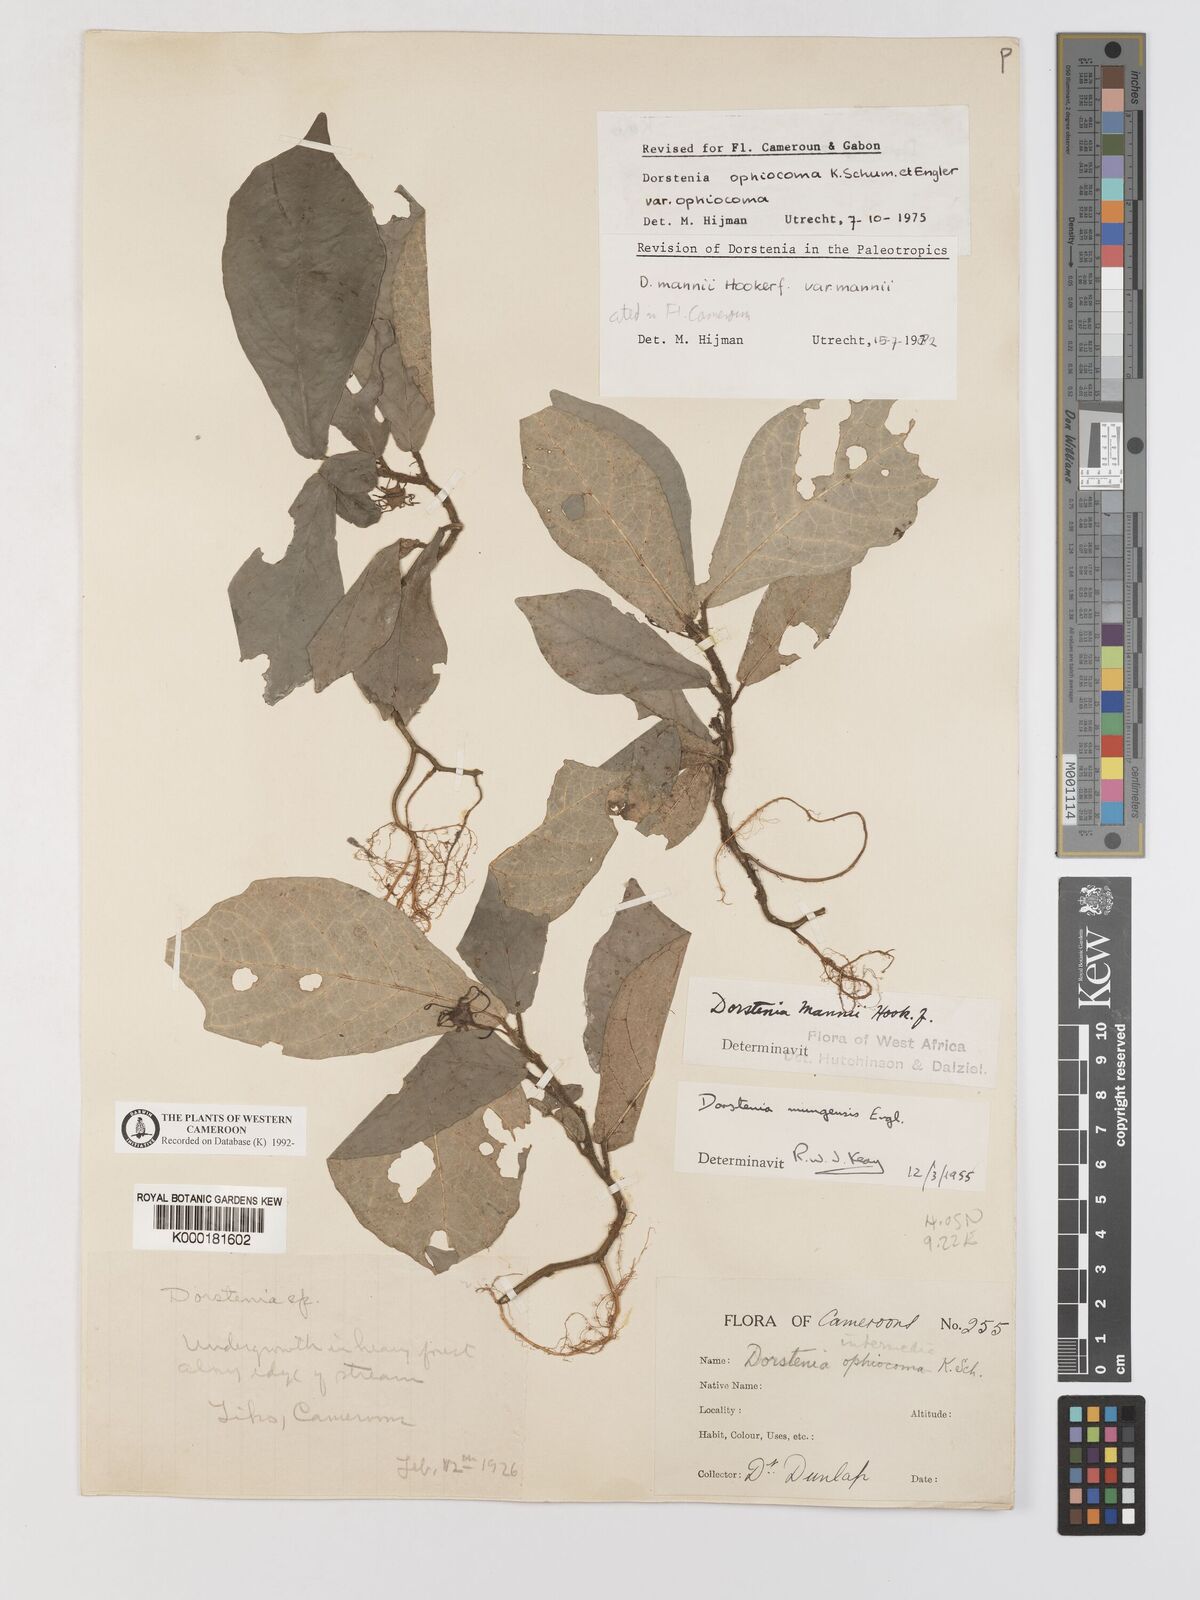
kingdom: Plantae
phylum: Tracheophyta
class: Magnoliopsida
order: Rosales
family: Moraceae
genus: Dorstenia
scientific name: Dorstenia mannii
